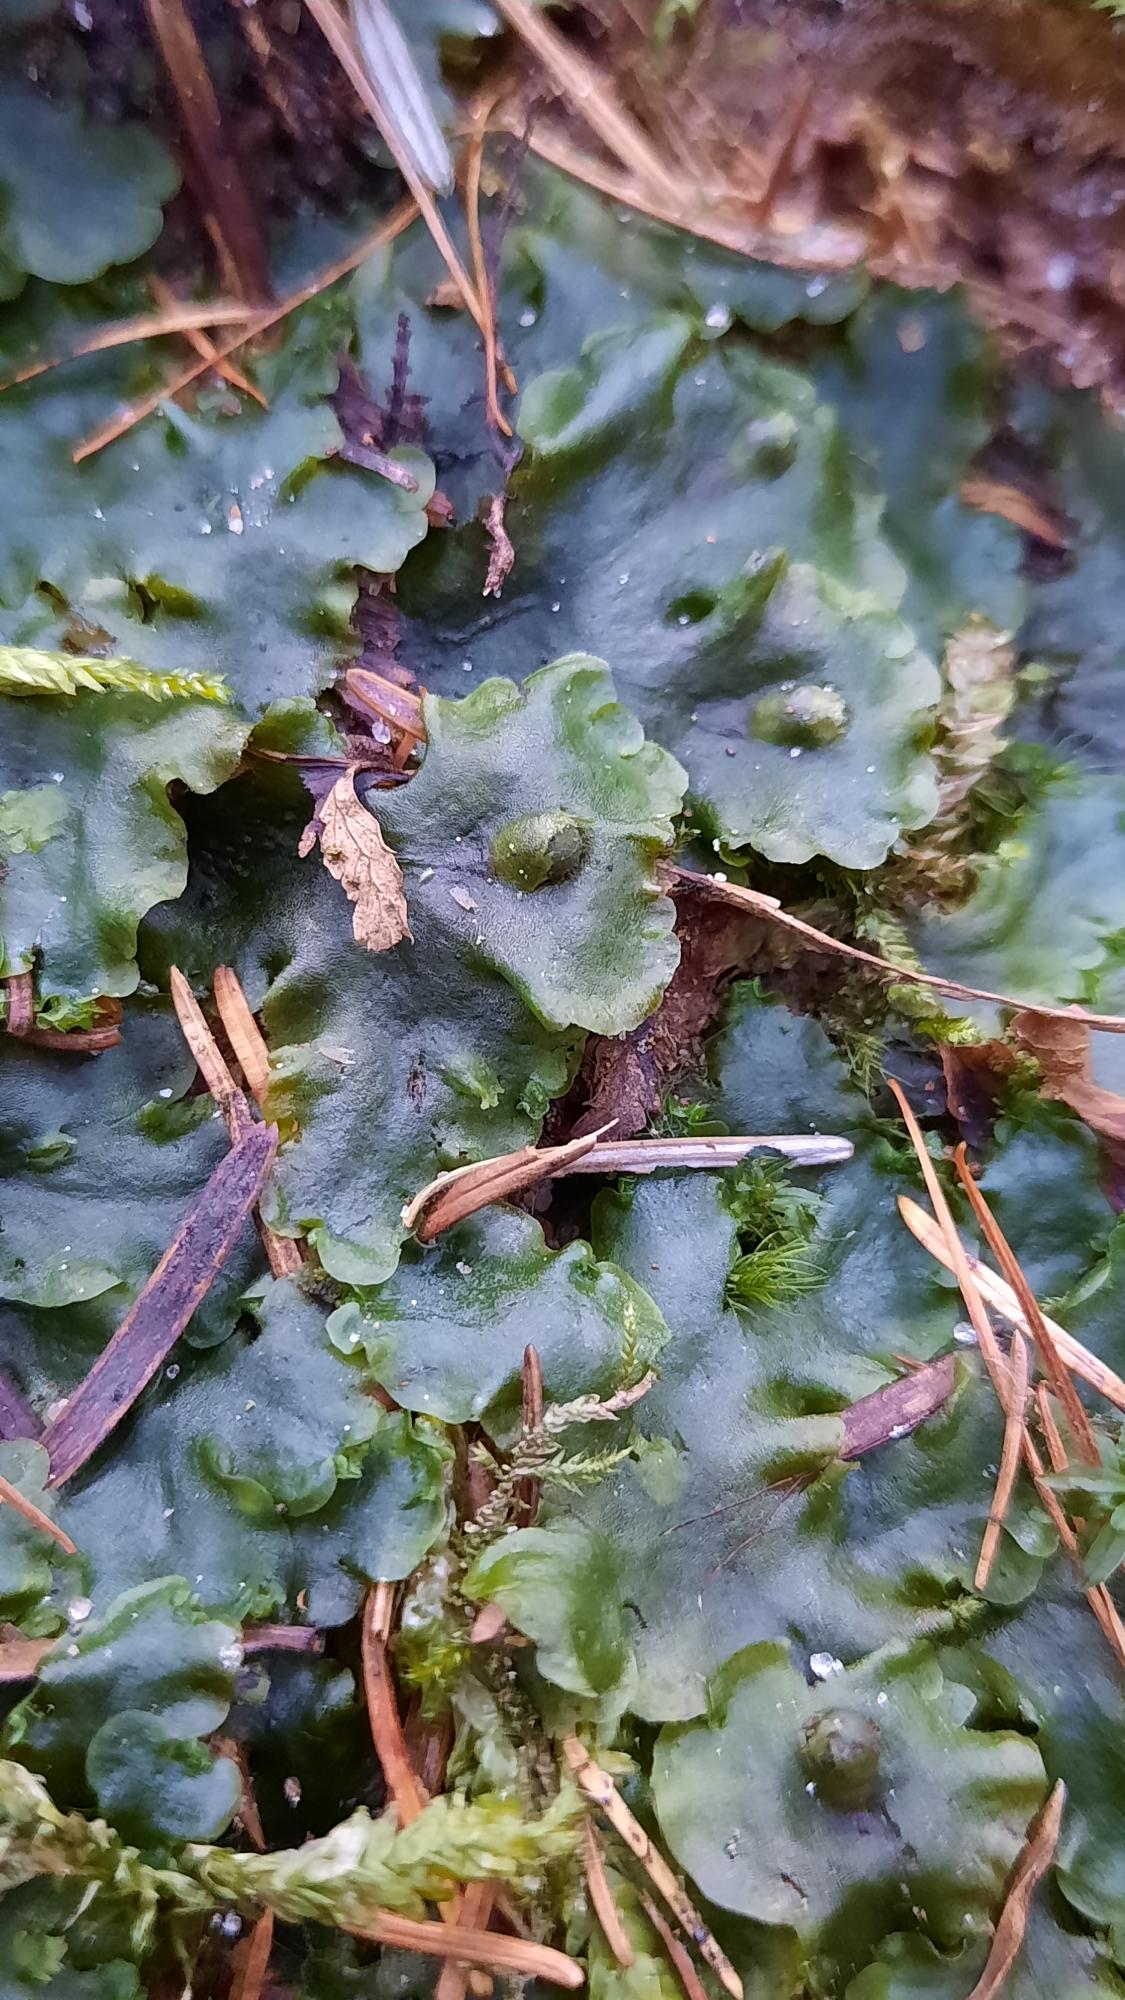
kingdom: Plantae
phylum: Marchantiophyta
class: Jungermanniopsida
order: Pelliales
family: Pelliaceae
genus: Pellia
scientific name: Pellia epiphylla
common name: Enbo ribbeløv
